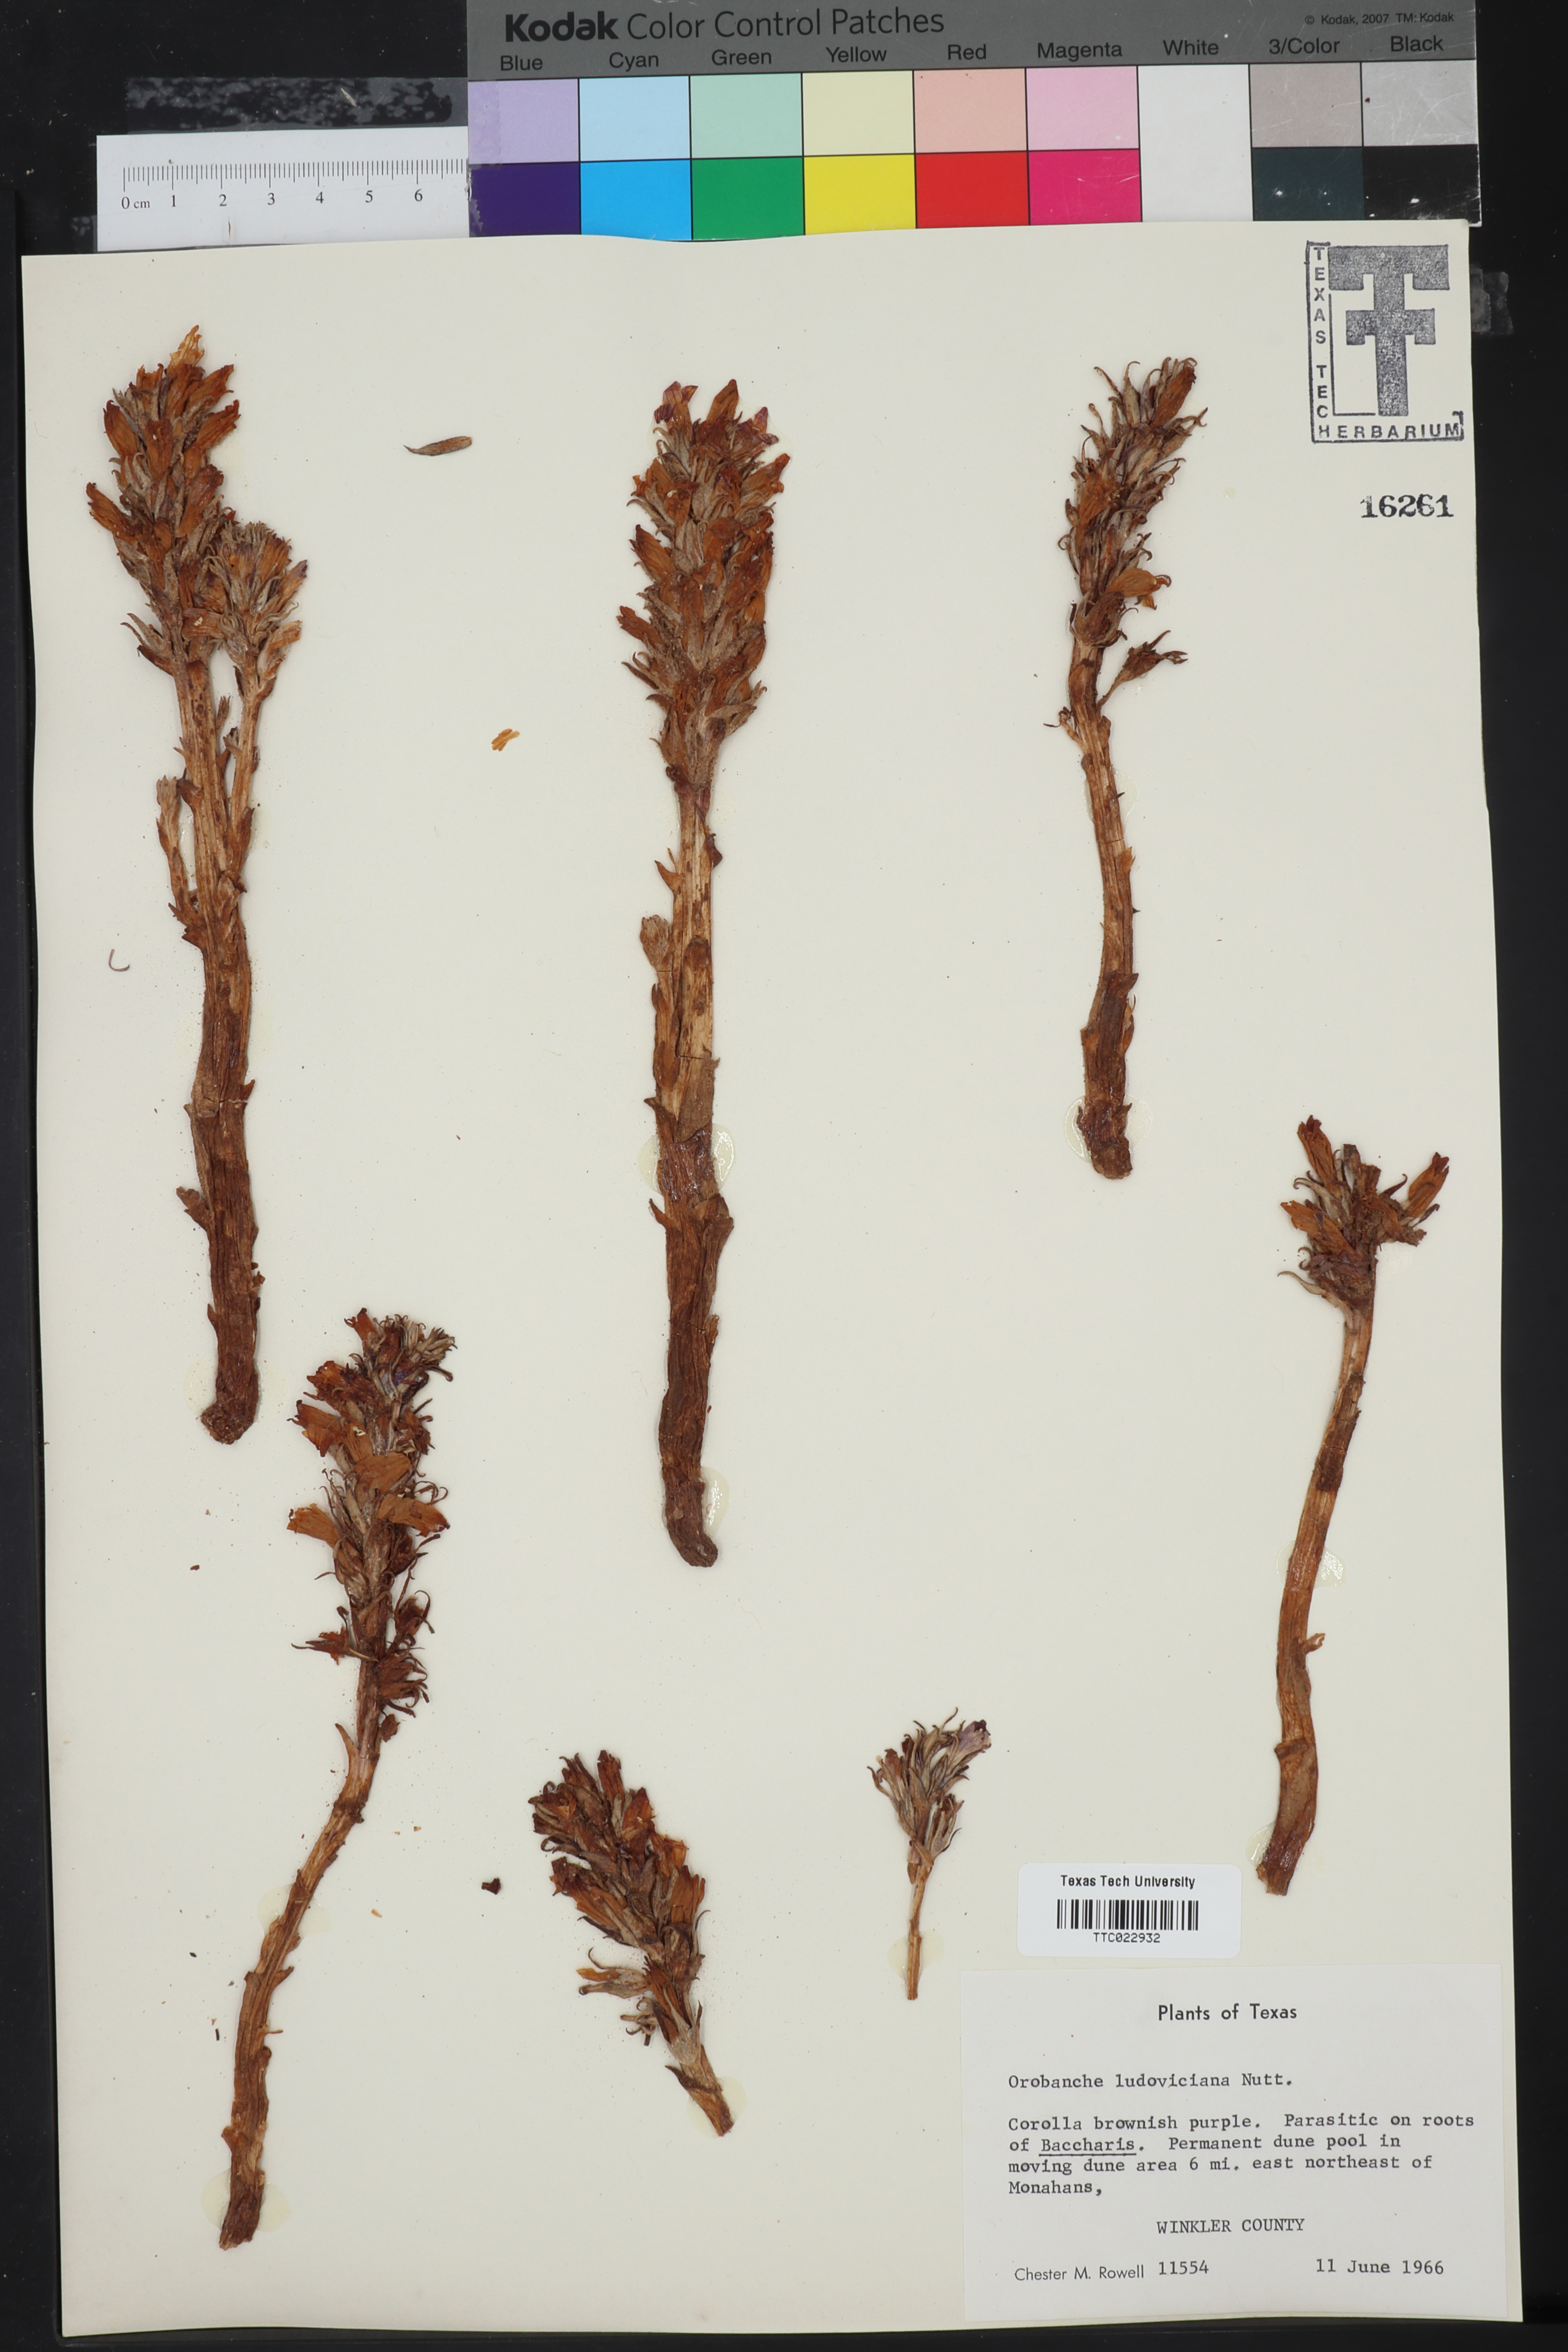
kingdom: Plantae
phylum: Tracheophyta
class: Magnoliopsida
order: Lamiales
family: Orobanchaceae
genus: Aphyllon
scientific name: Aphyllon ludovicianum
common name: Louisiana broomrape
